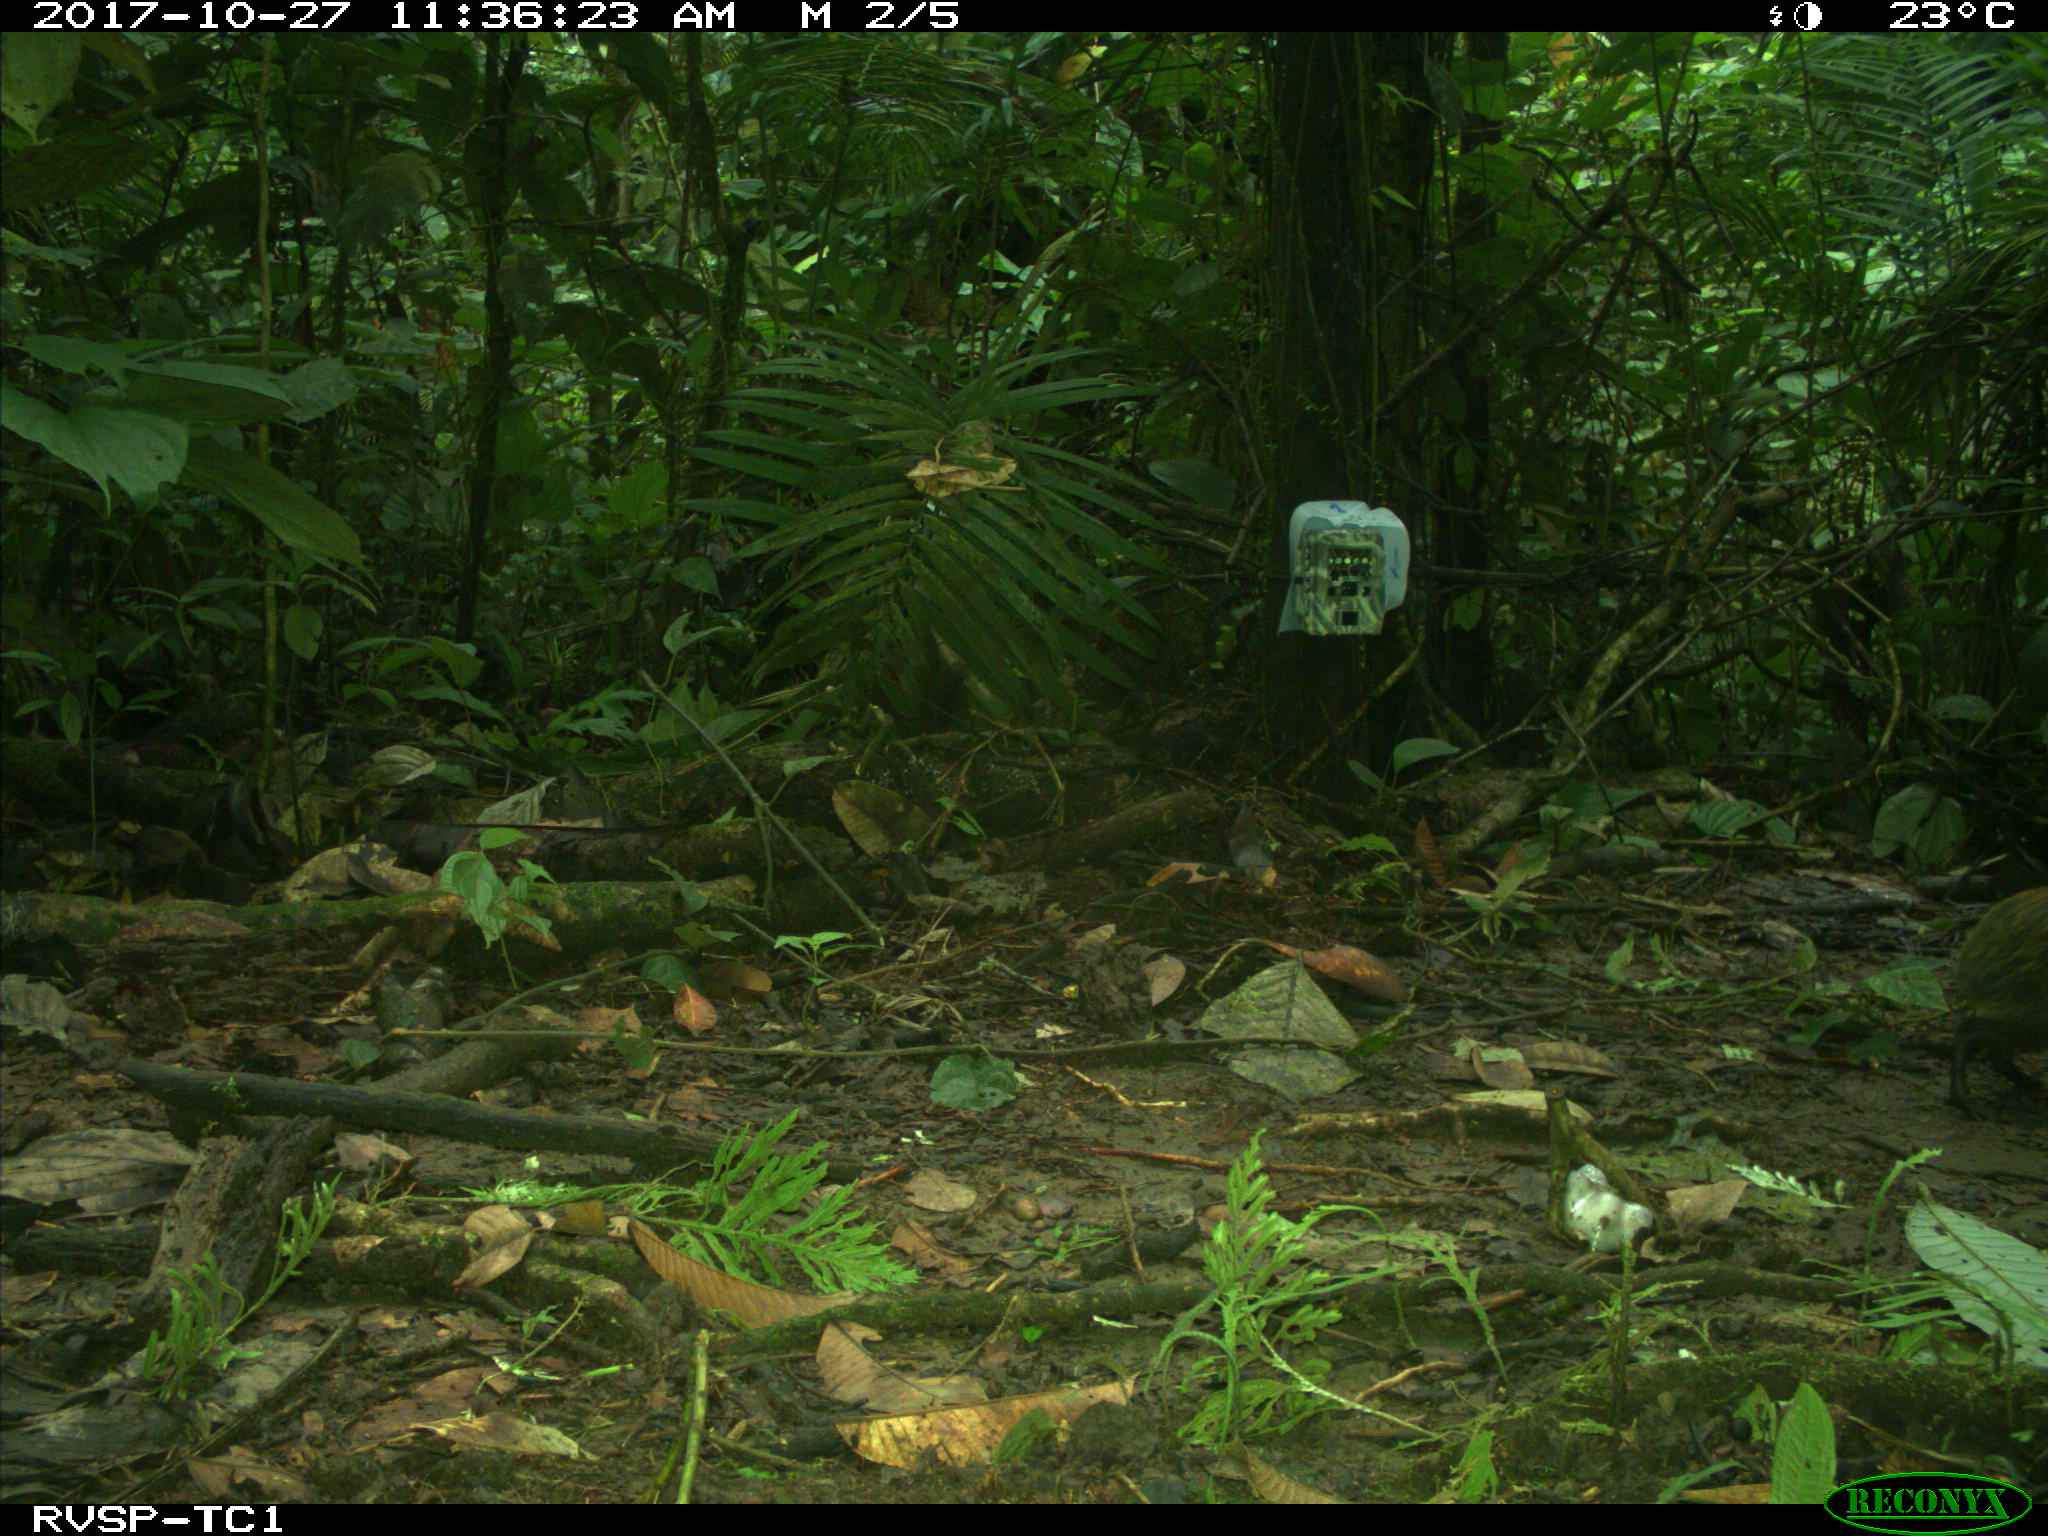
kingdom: Animalia
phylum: Chordata
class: Mammalia
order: Rodentia
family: Dasyproctidae
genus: Dasyprocta
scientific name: Dasyprocta punctata
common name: Central american agouti
